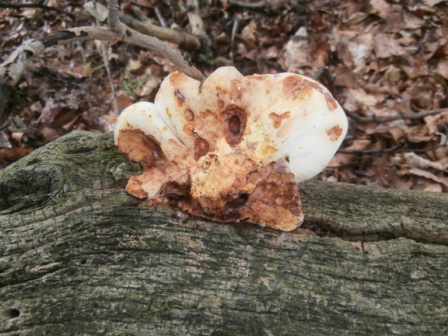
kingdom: Fungi
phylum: Basidiomycota
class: Agaricomycetes
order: Polyporales
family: Fomitopsidaceae
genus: Buglossoporus
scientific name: Buglossoporus quercinus
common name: egetunge
